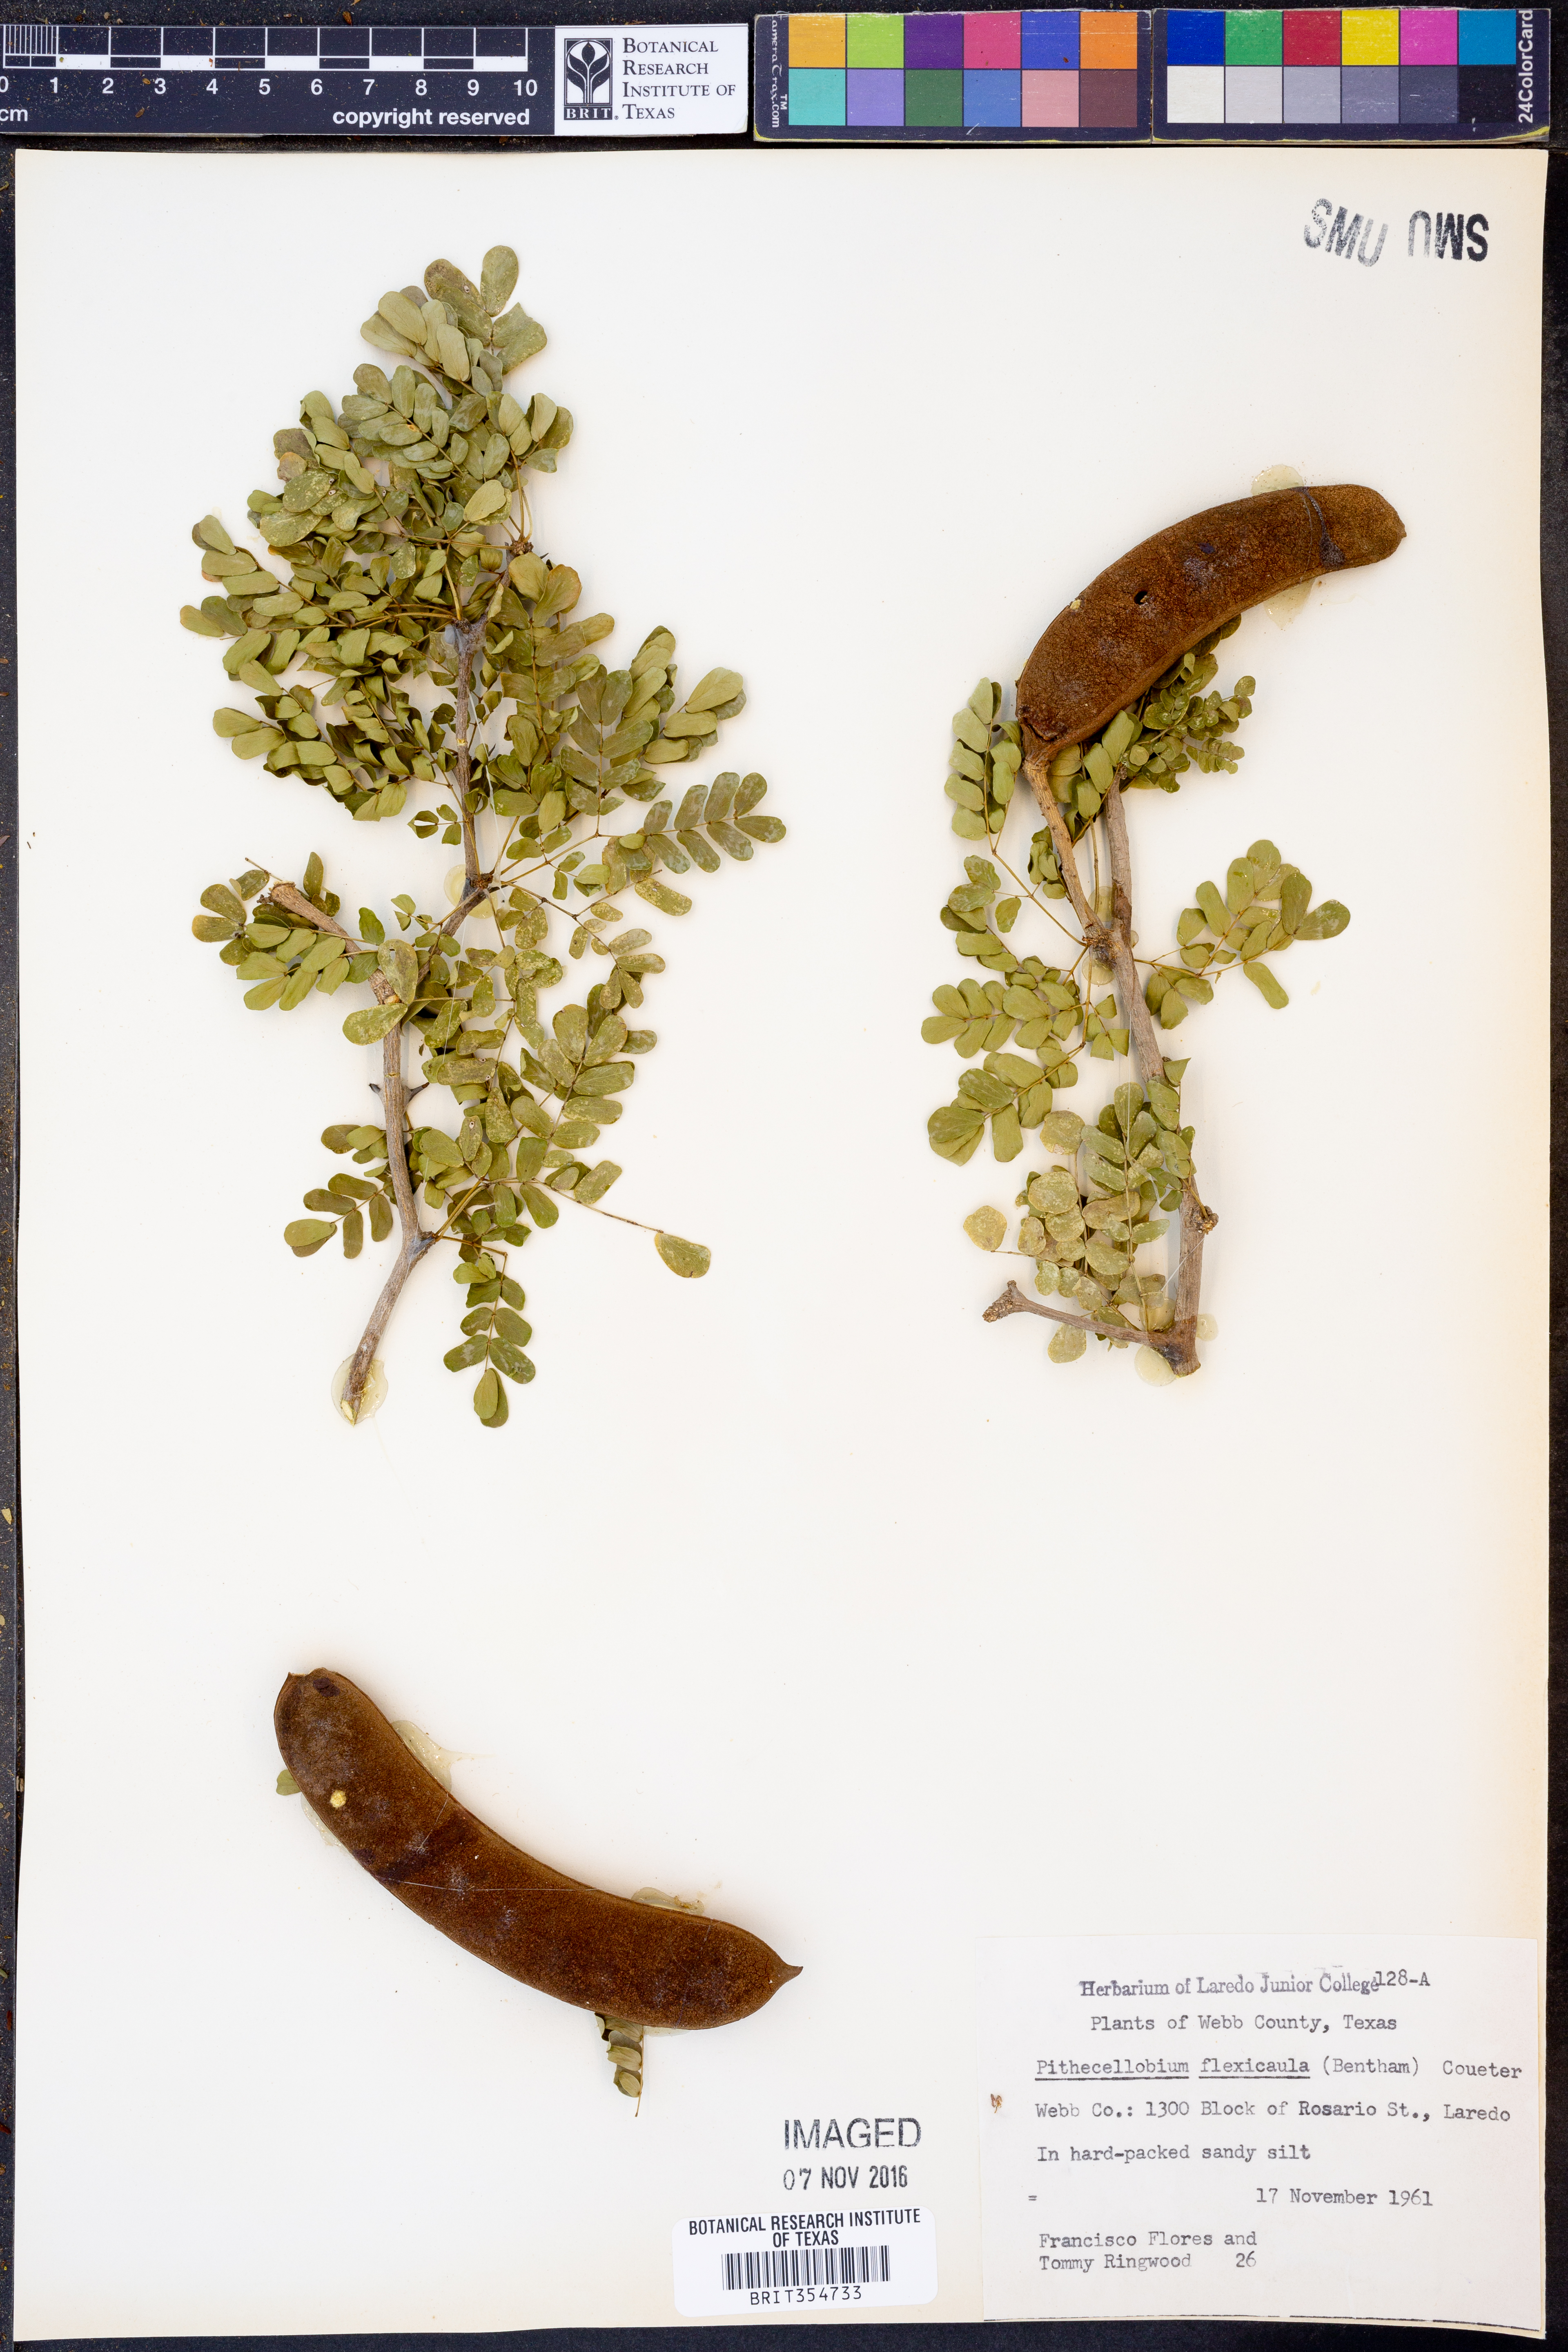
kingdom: Plantae
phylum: Tracheophyta
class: Magnoliopsida
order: Fabales
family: Fabaceae
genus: Ebenopsis
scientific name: Ebenopsis ebano
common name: Ebony blackbead
